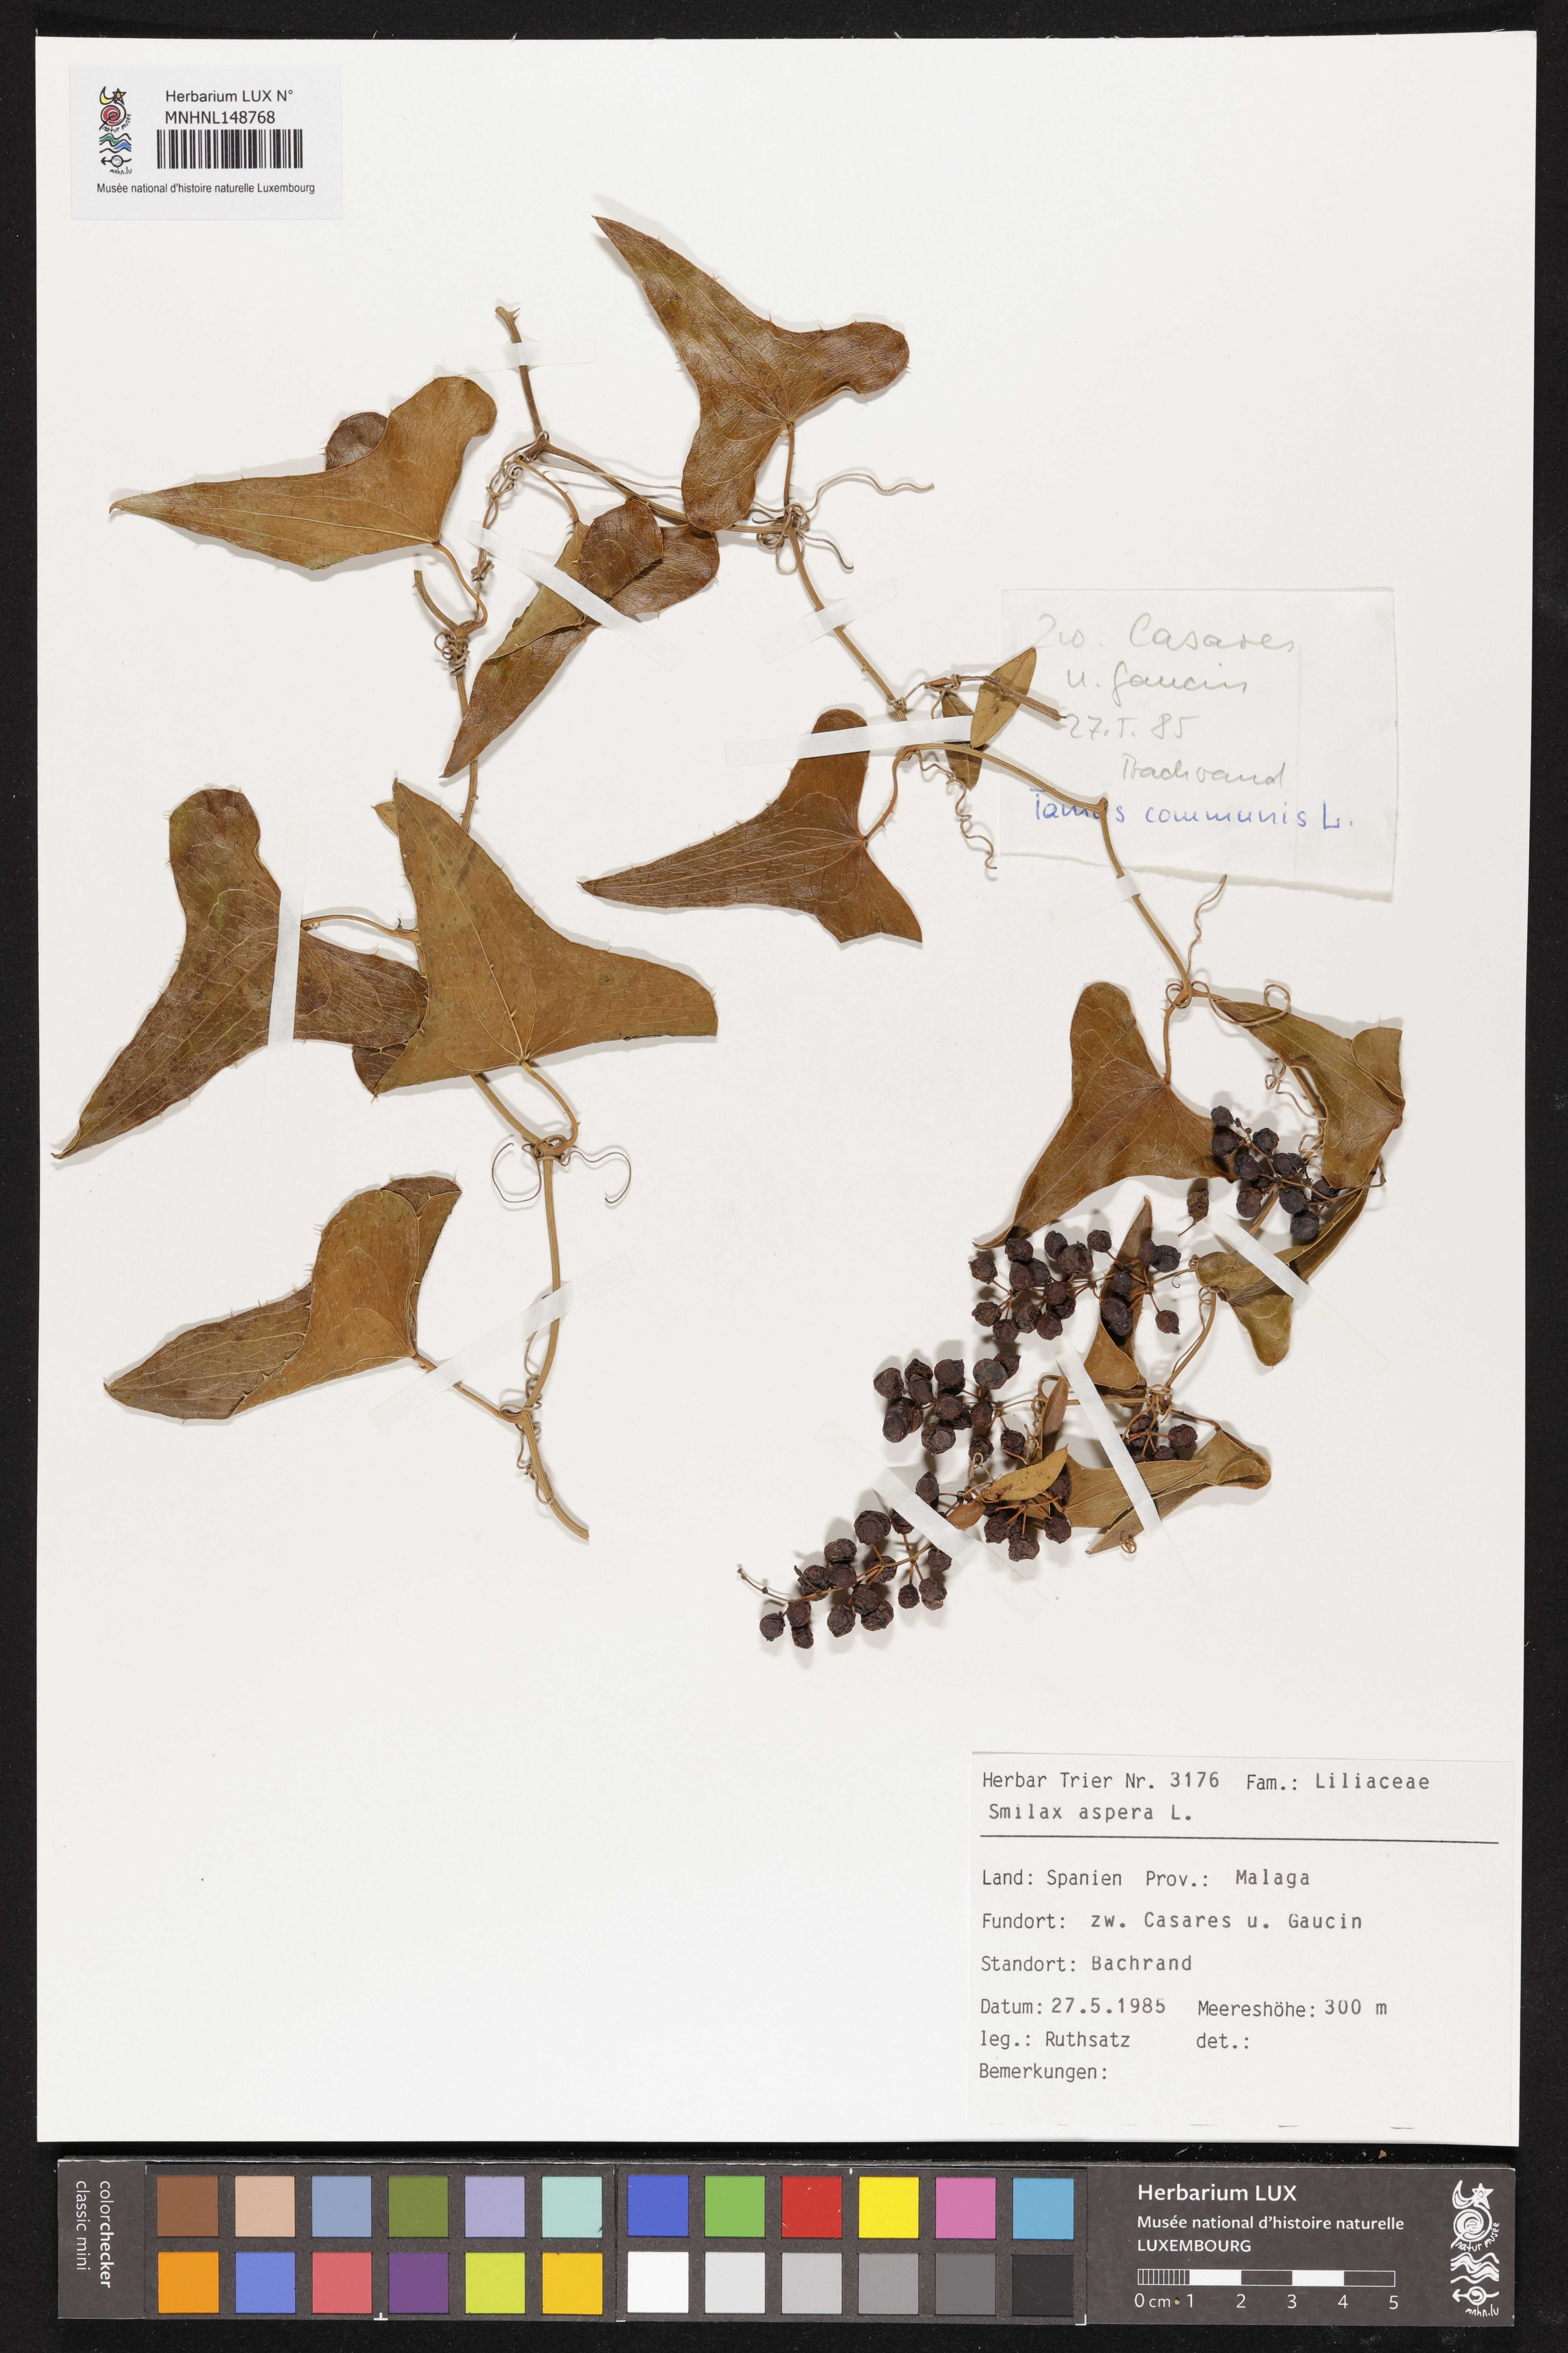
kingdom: Plantae
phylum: Tracheophyta
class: Liliopsida
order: Liliales
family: Smilacaceae
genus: Smilax
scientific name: Smilax aspera
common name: Common smilax
